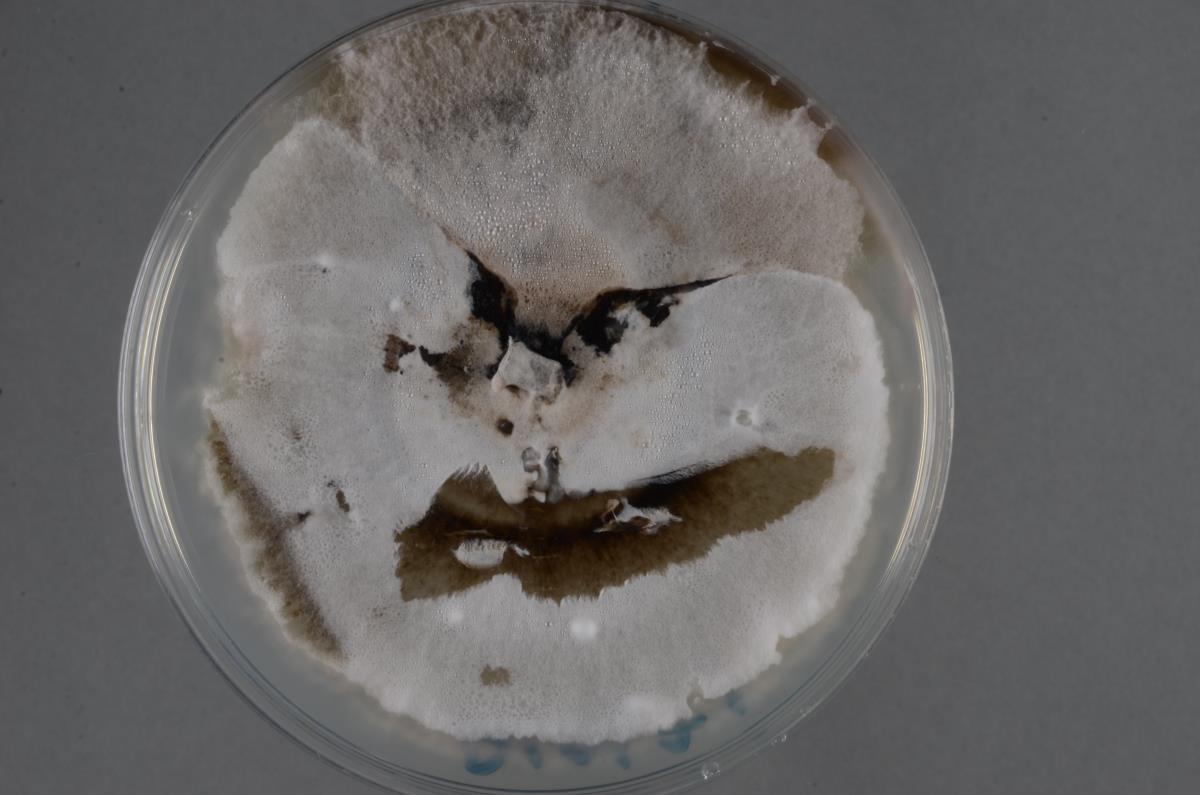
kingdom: Fungi
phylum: Ascomycota
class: Leotiomycetes
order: Helotiales
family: Helotiaceae
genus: Hymenotorrendiella
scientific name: Hymenotorrendiella coriariae
